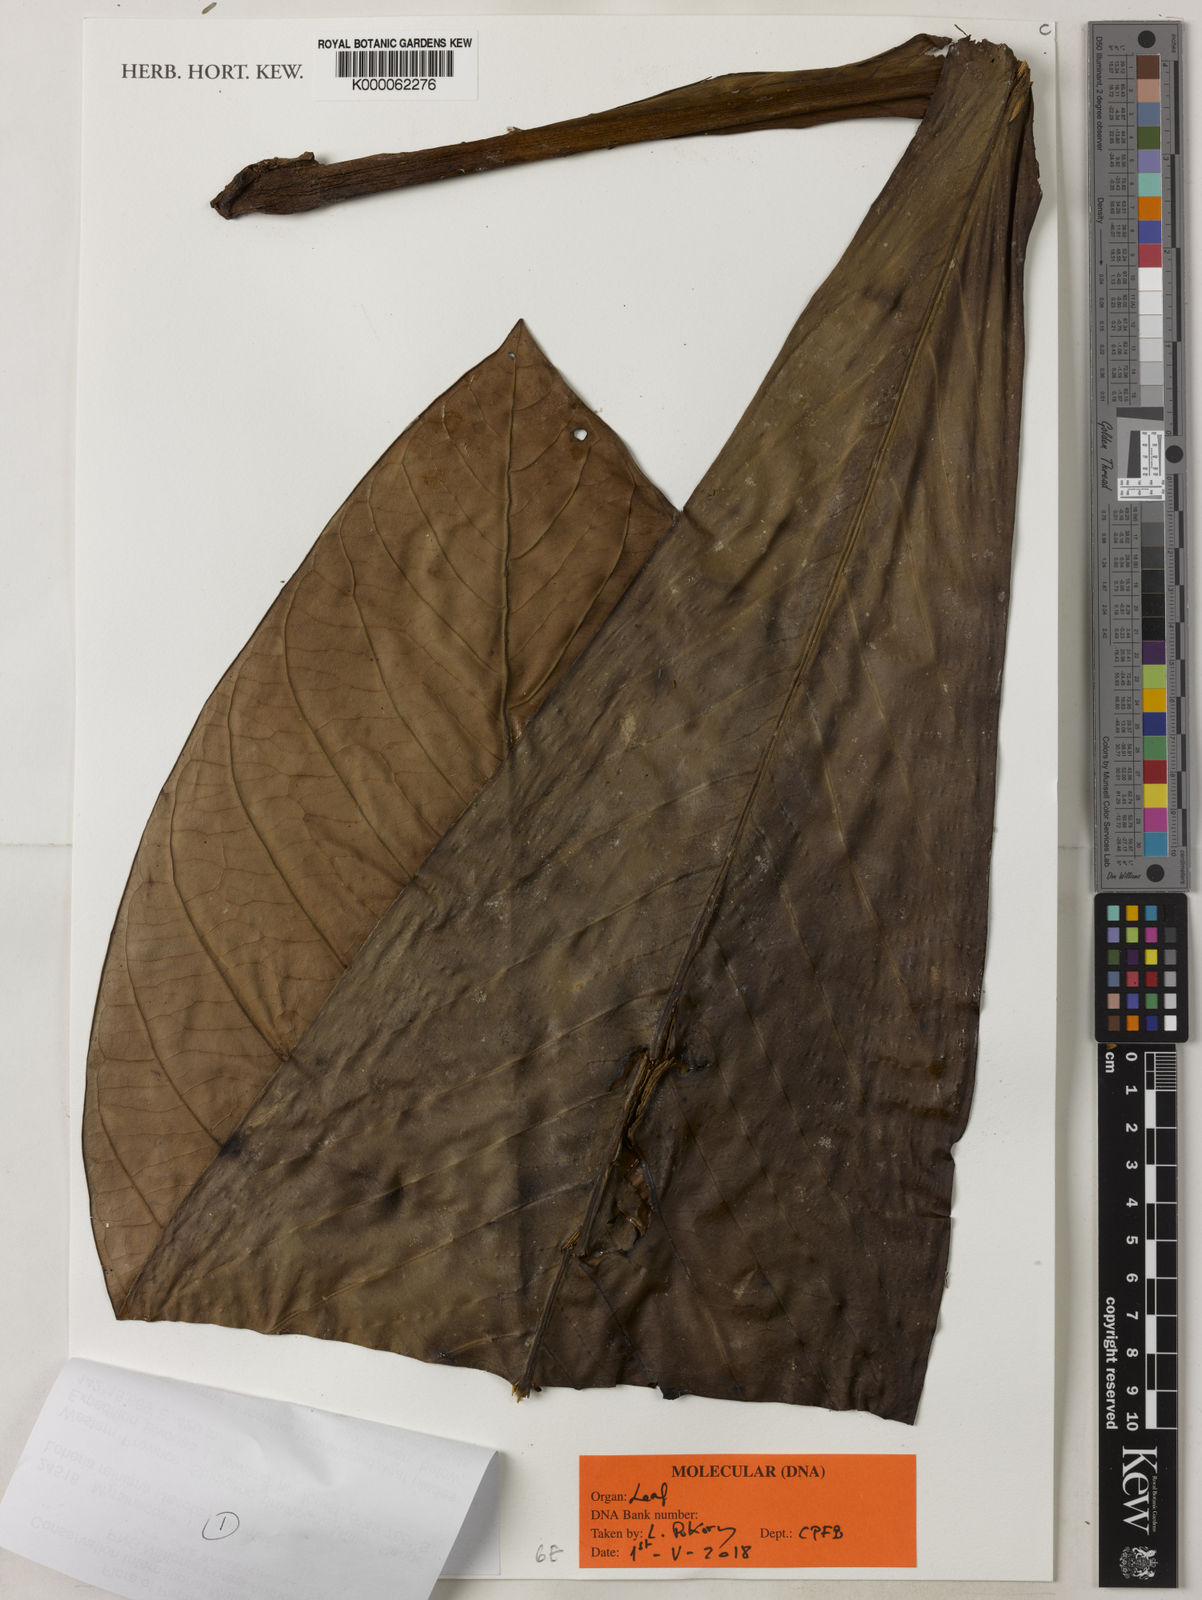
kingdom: Plantae
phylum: Tracheophyta
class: Magnoliopsida
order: Ericales
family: Primulaceae
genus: Loheria
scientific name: Loheria reiniana
